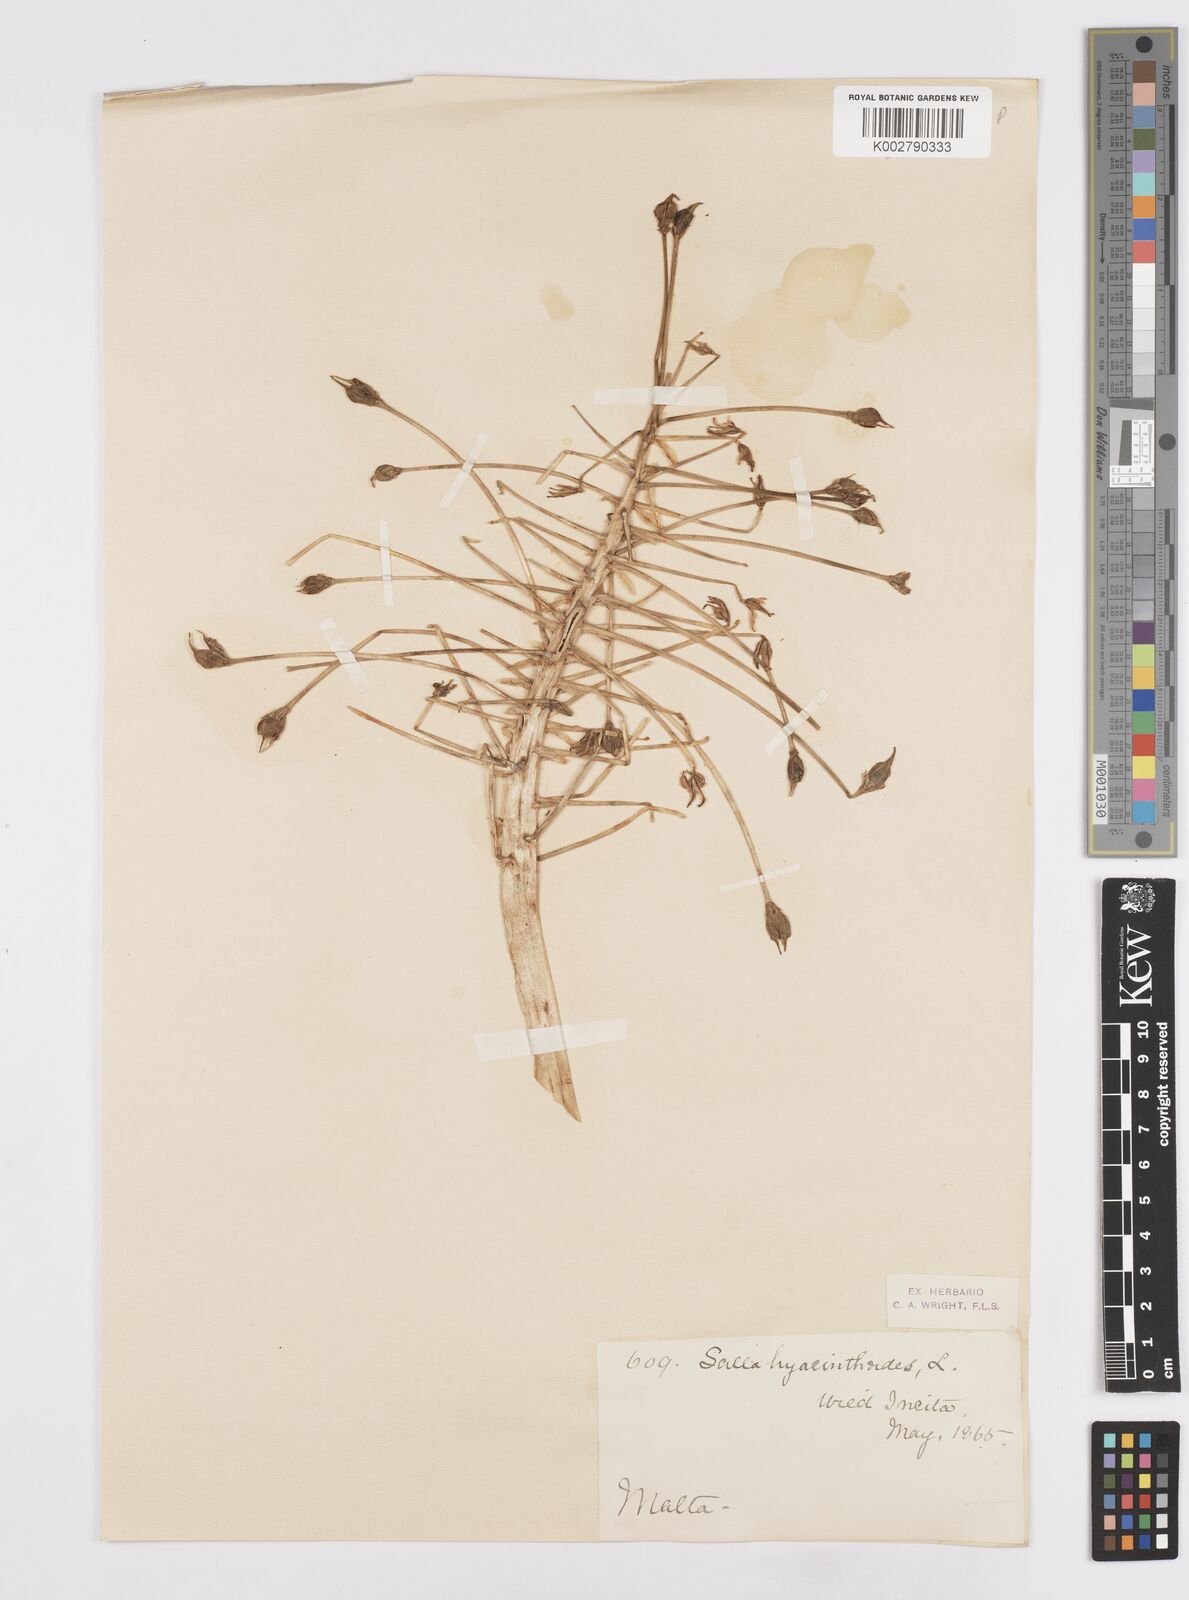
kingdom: Plantae
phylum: Tracheophyta
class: Liliopsida
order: Asparagales
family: Asparagaceae
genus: Scilla
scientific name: Scilla peruviana
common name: Portuguese squill
